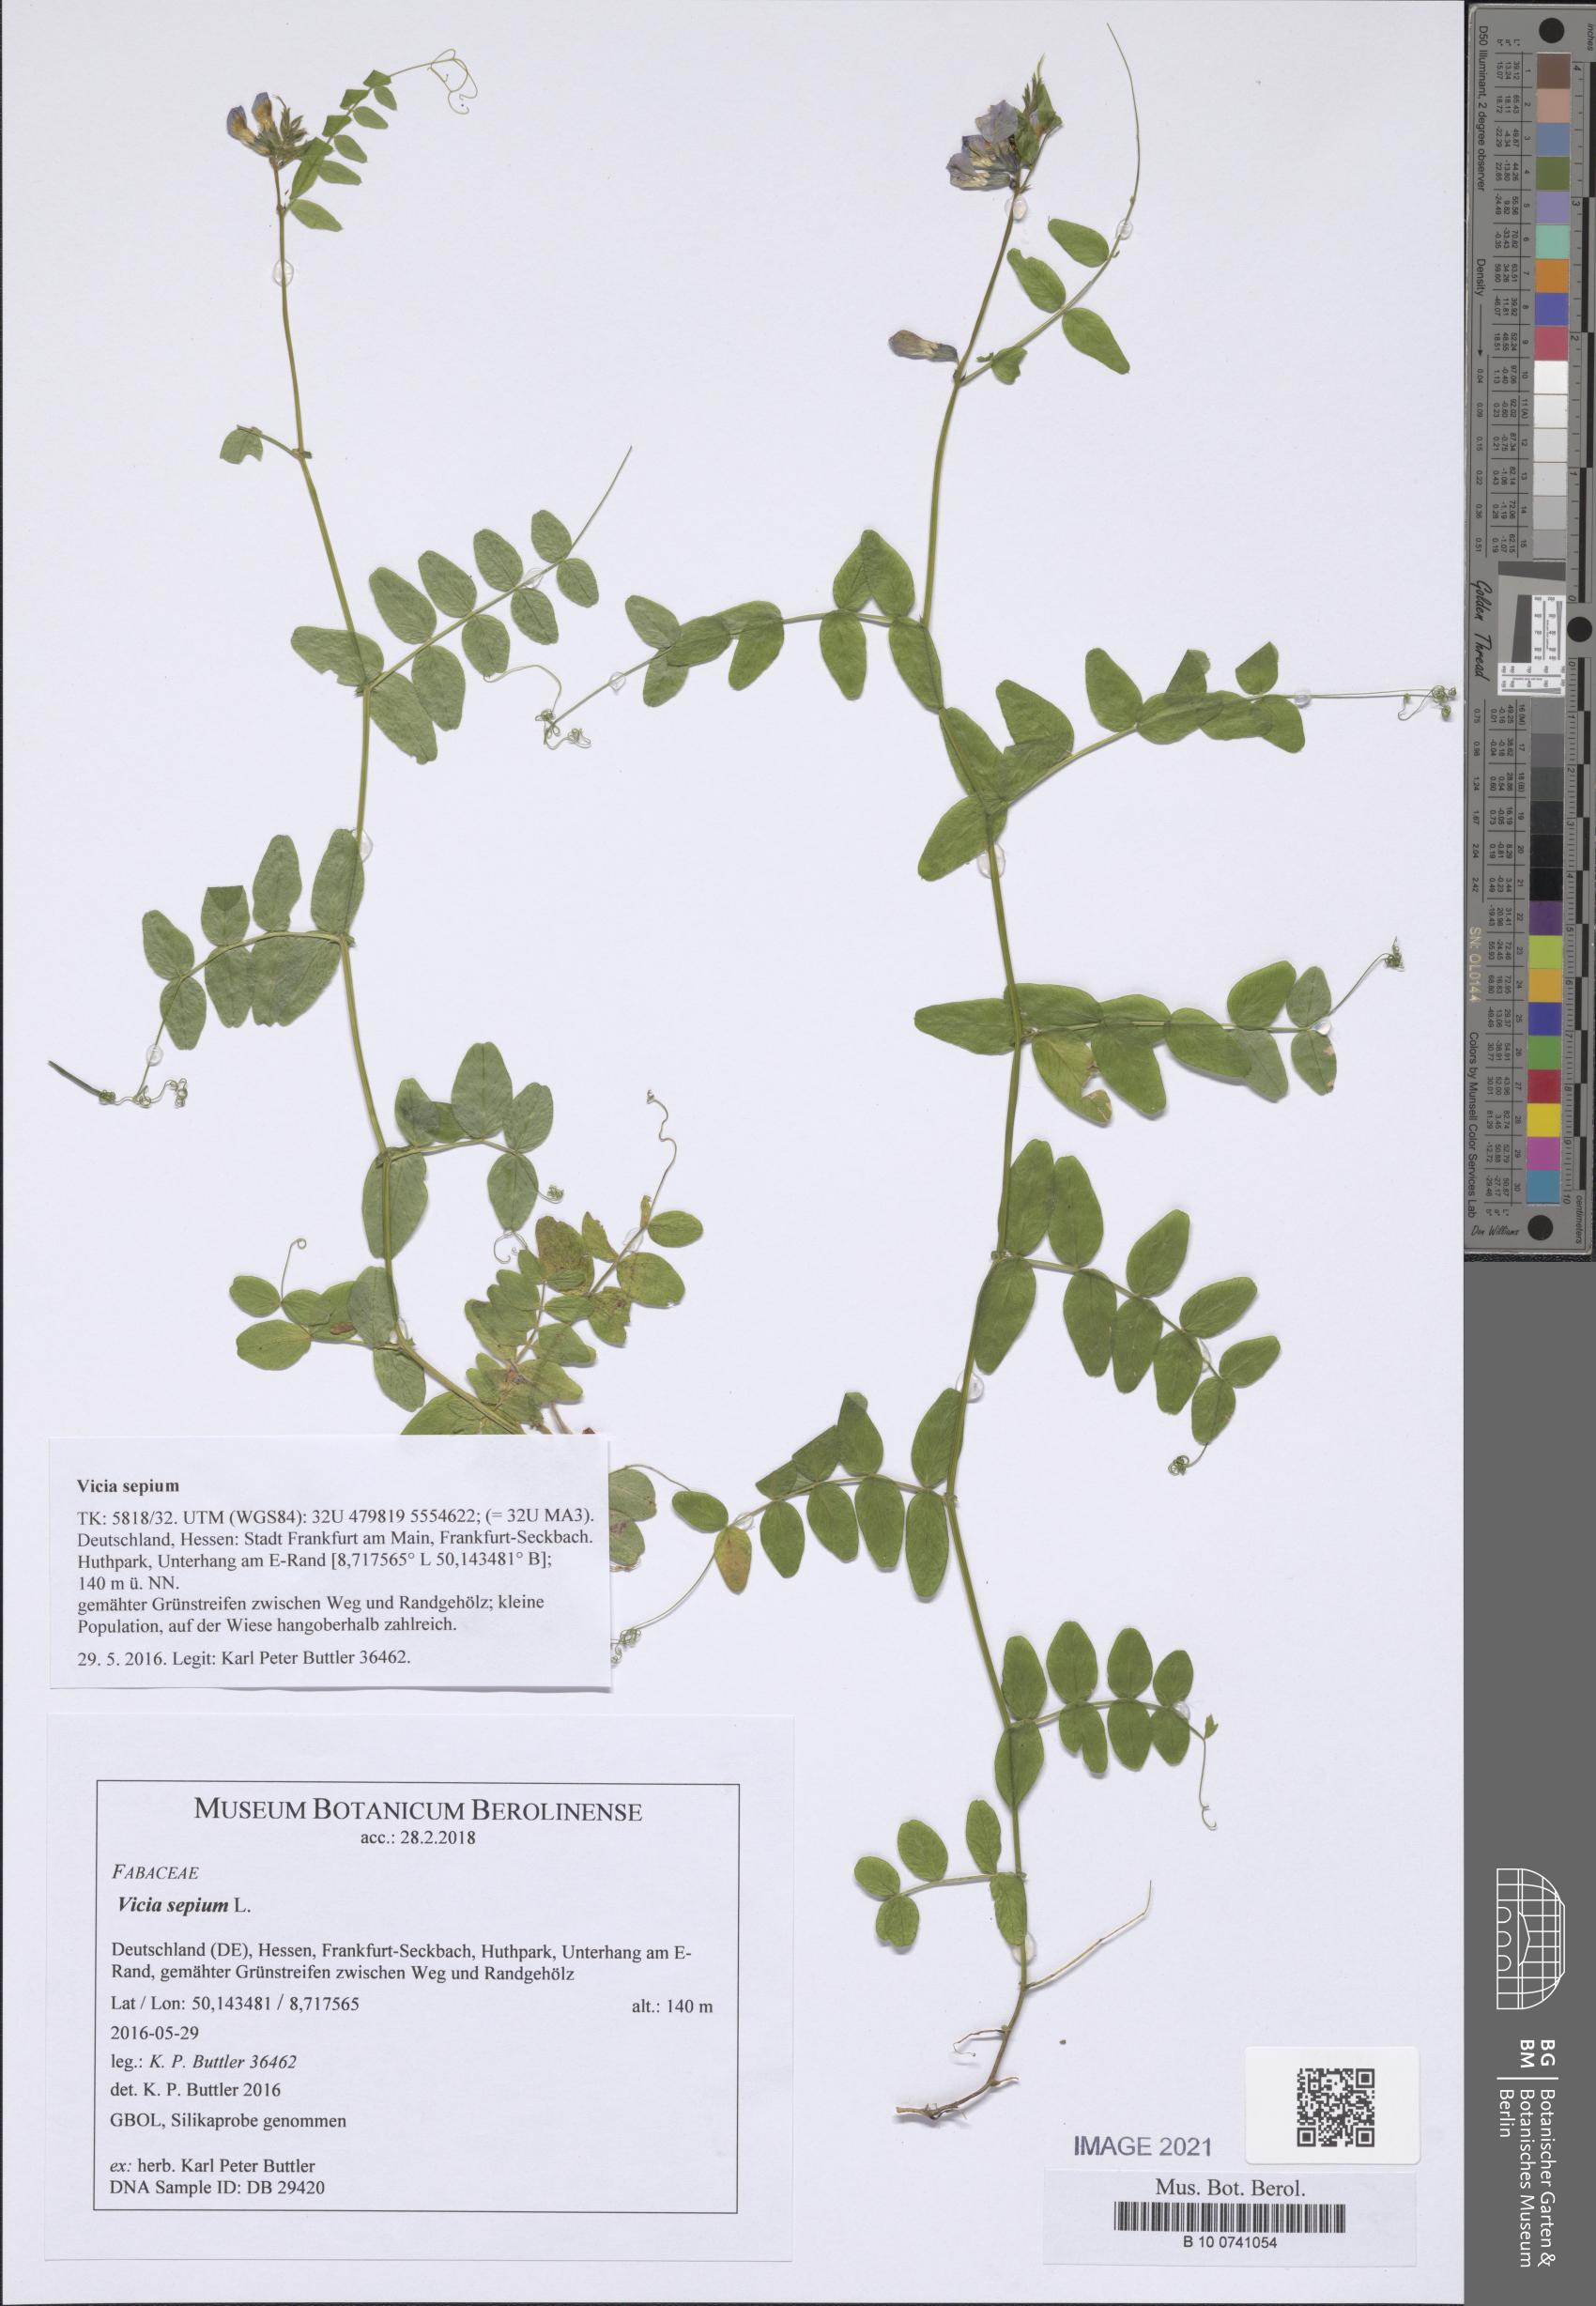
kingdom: Plantae
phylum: Tracheophyta
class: Magnoliopsida
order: Fabales
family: Fabaceae
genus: Vicia
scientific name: Vicia sepium
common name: Bush vetch
